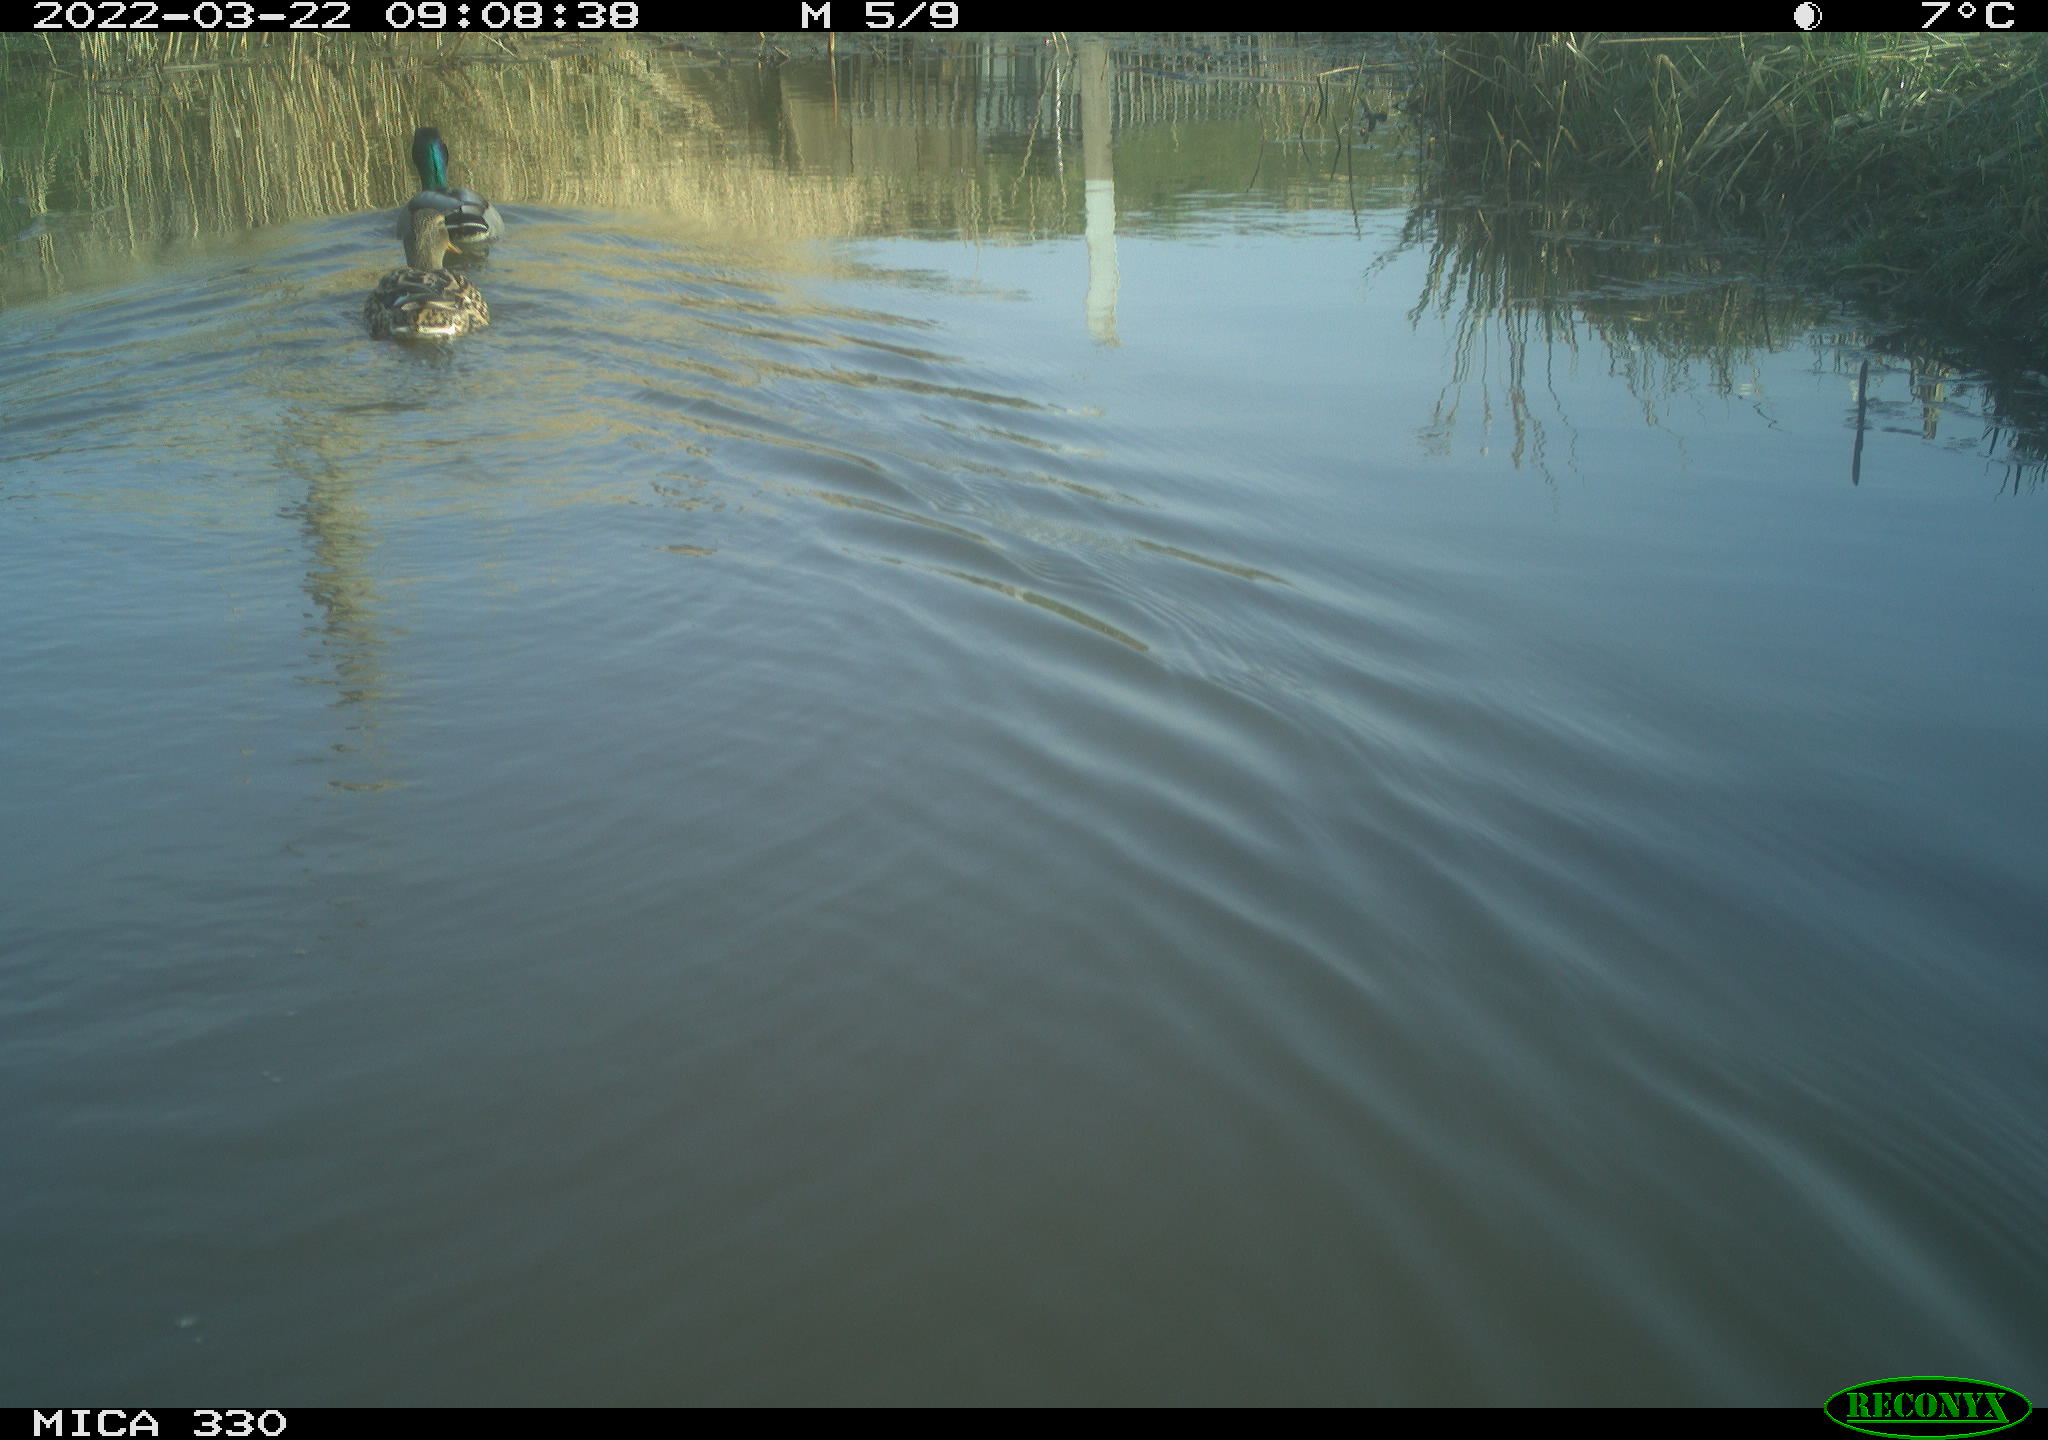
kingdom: Animalia
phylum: Chordata
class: Aves
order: Anseriformes
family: Anatidae
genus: Anas
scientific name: Anas platyrhynchos
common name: Mallard
